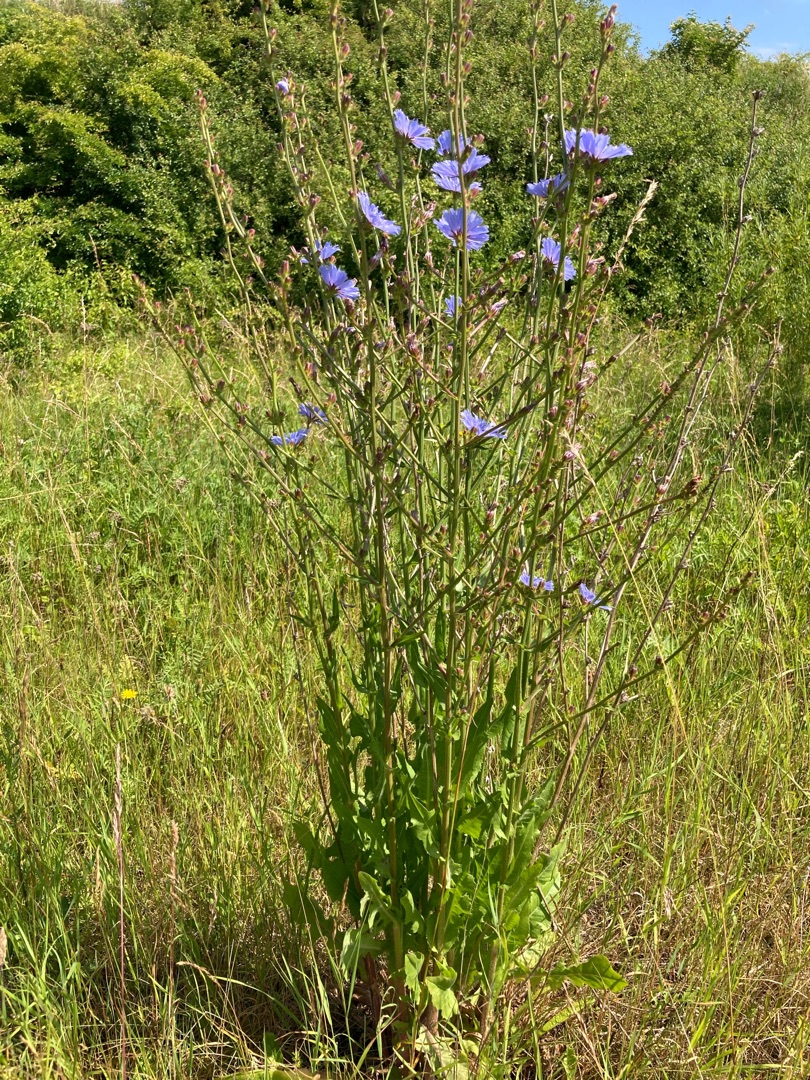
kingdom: Plantae
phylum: Tracheophyta
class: Magnoliopsida
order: Asterales
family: Asteraceae
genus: Cichorium
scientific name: Cichorium intybus
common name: Cikorie
